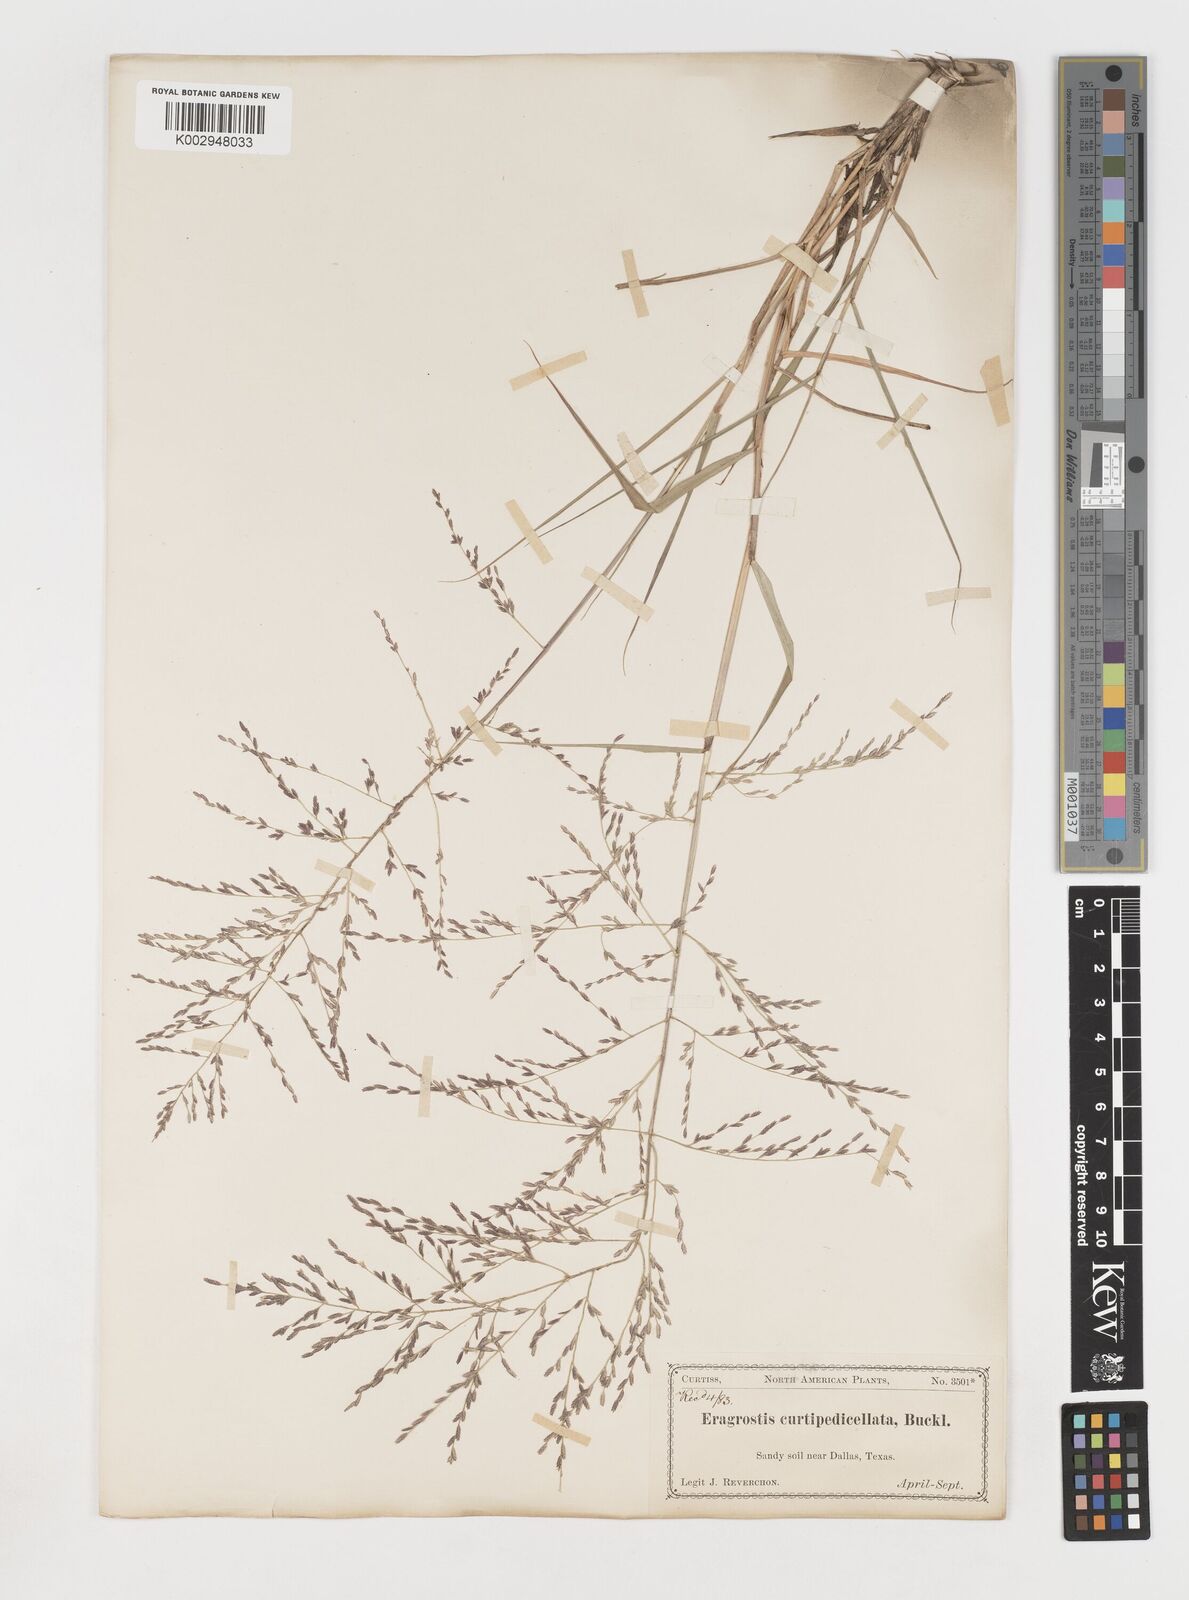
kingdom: Plantae
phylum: Tracheophyta
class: Liliopsida
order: Poales
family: Poaceae
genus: Eragrostis
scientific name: Eragrostis curtipedicellata
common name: Gummy love grass
